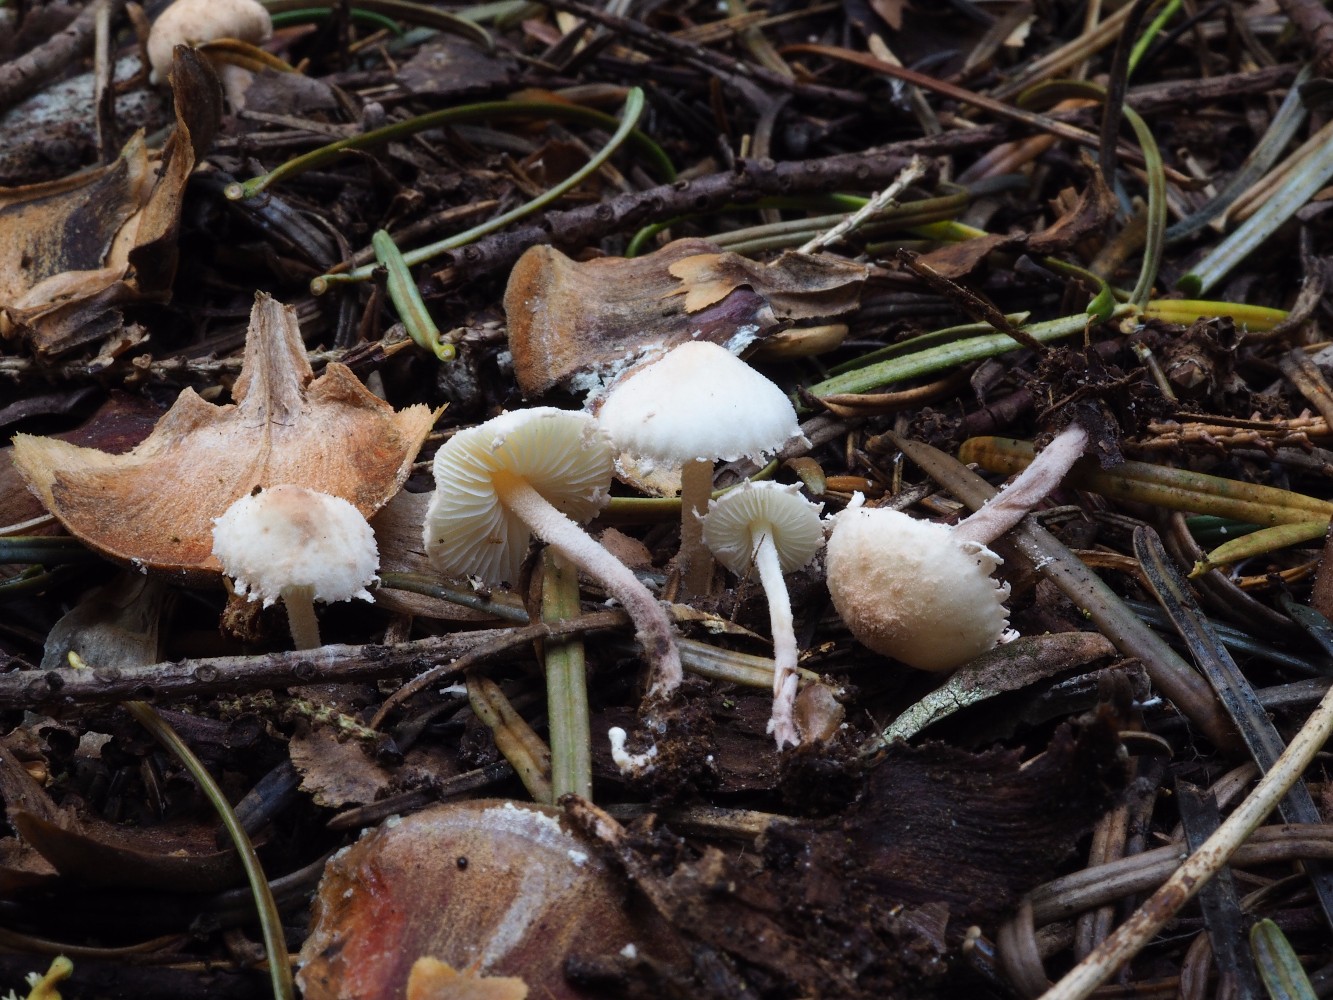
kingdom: Fungi
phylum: Basidiomycota
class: Agaricomycetes
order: Agaricales
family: Agaricaceae
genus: Cystolepiota
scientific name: Cystolepiota seminuda
